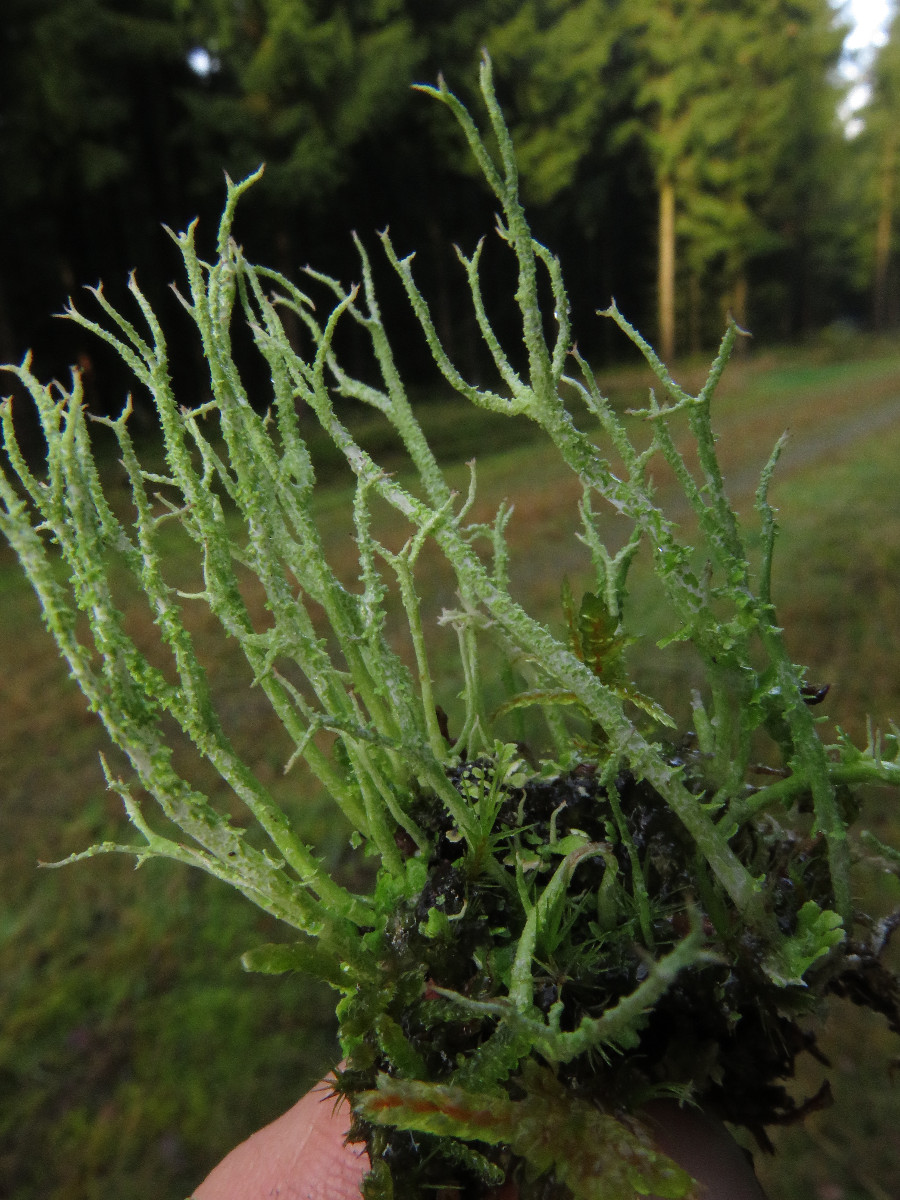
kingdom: Fungi
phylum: Ascomycota
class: Lecanoromycetes
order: Lecanorales
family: Cladoniaceae
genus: Cladonia
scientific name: Cladonia scabriuscula
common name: ru bægerlav
